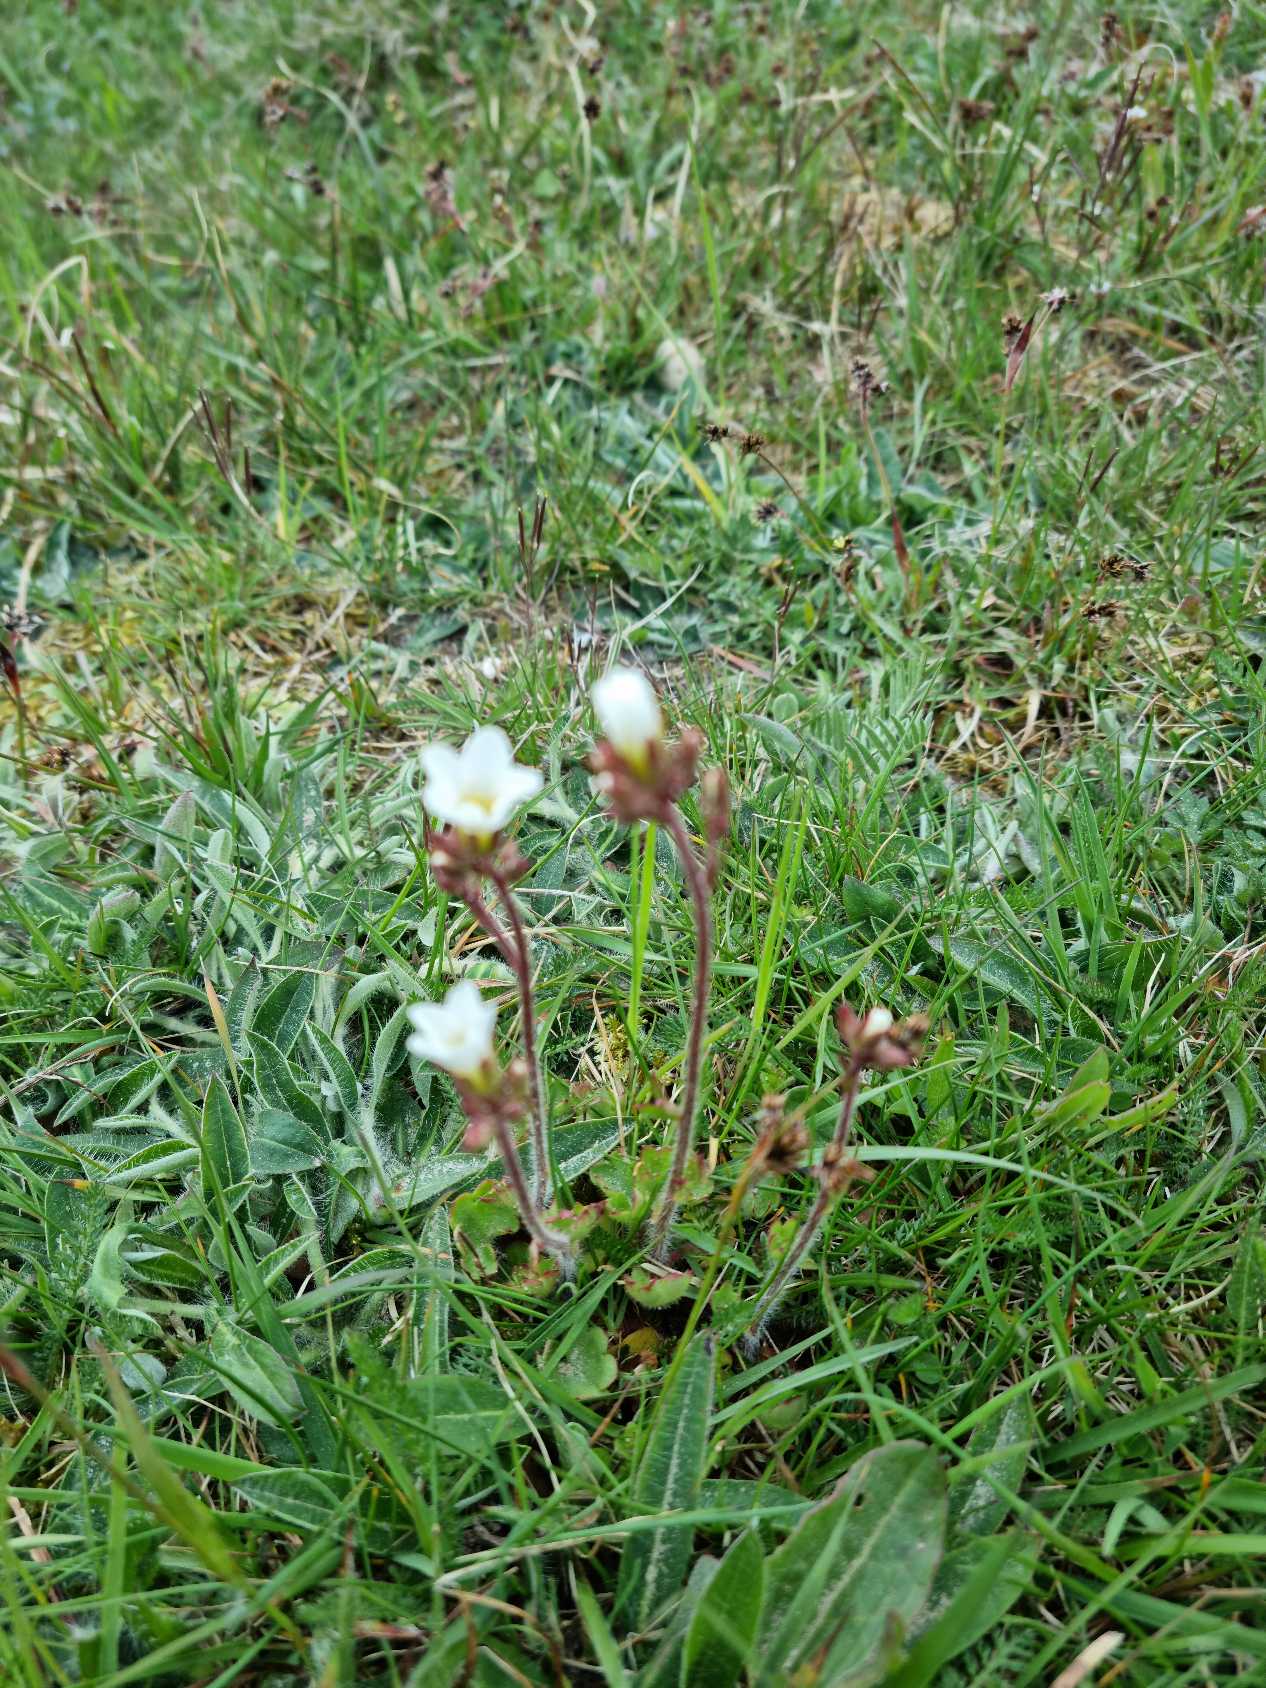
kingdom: Plantae
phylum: Tracheophyta
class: Magnoliopsida
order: Saxifragales
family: Saxifragaceae
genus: Saxifraga
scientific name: Saxifraga granulata
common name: Kornet stenbræk
